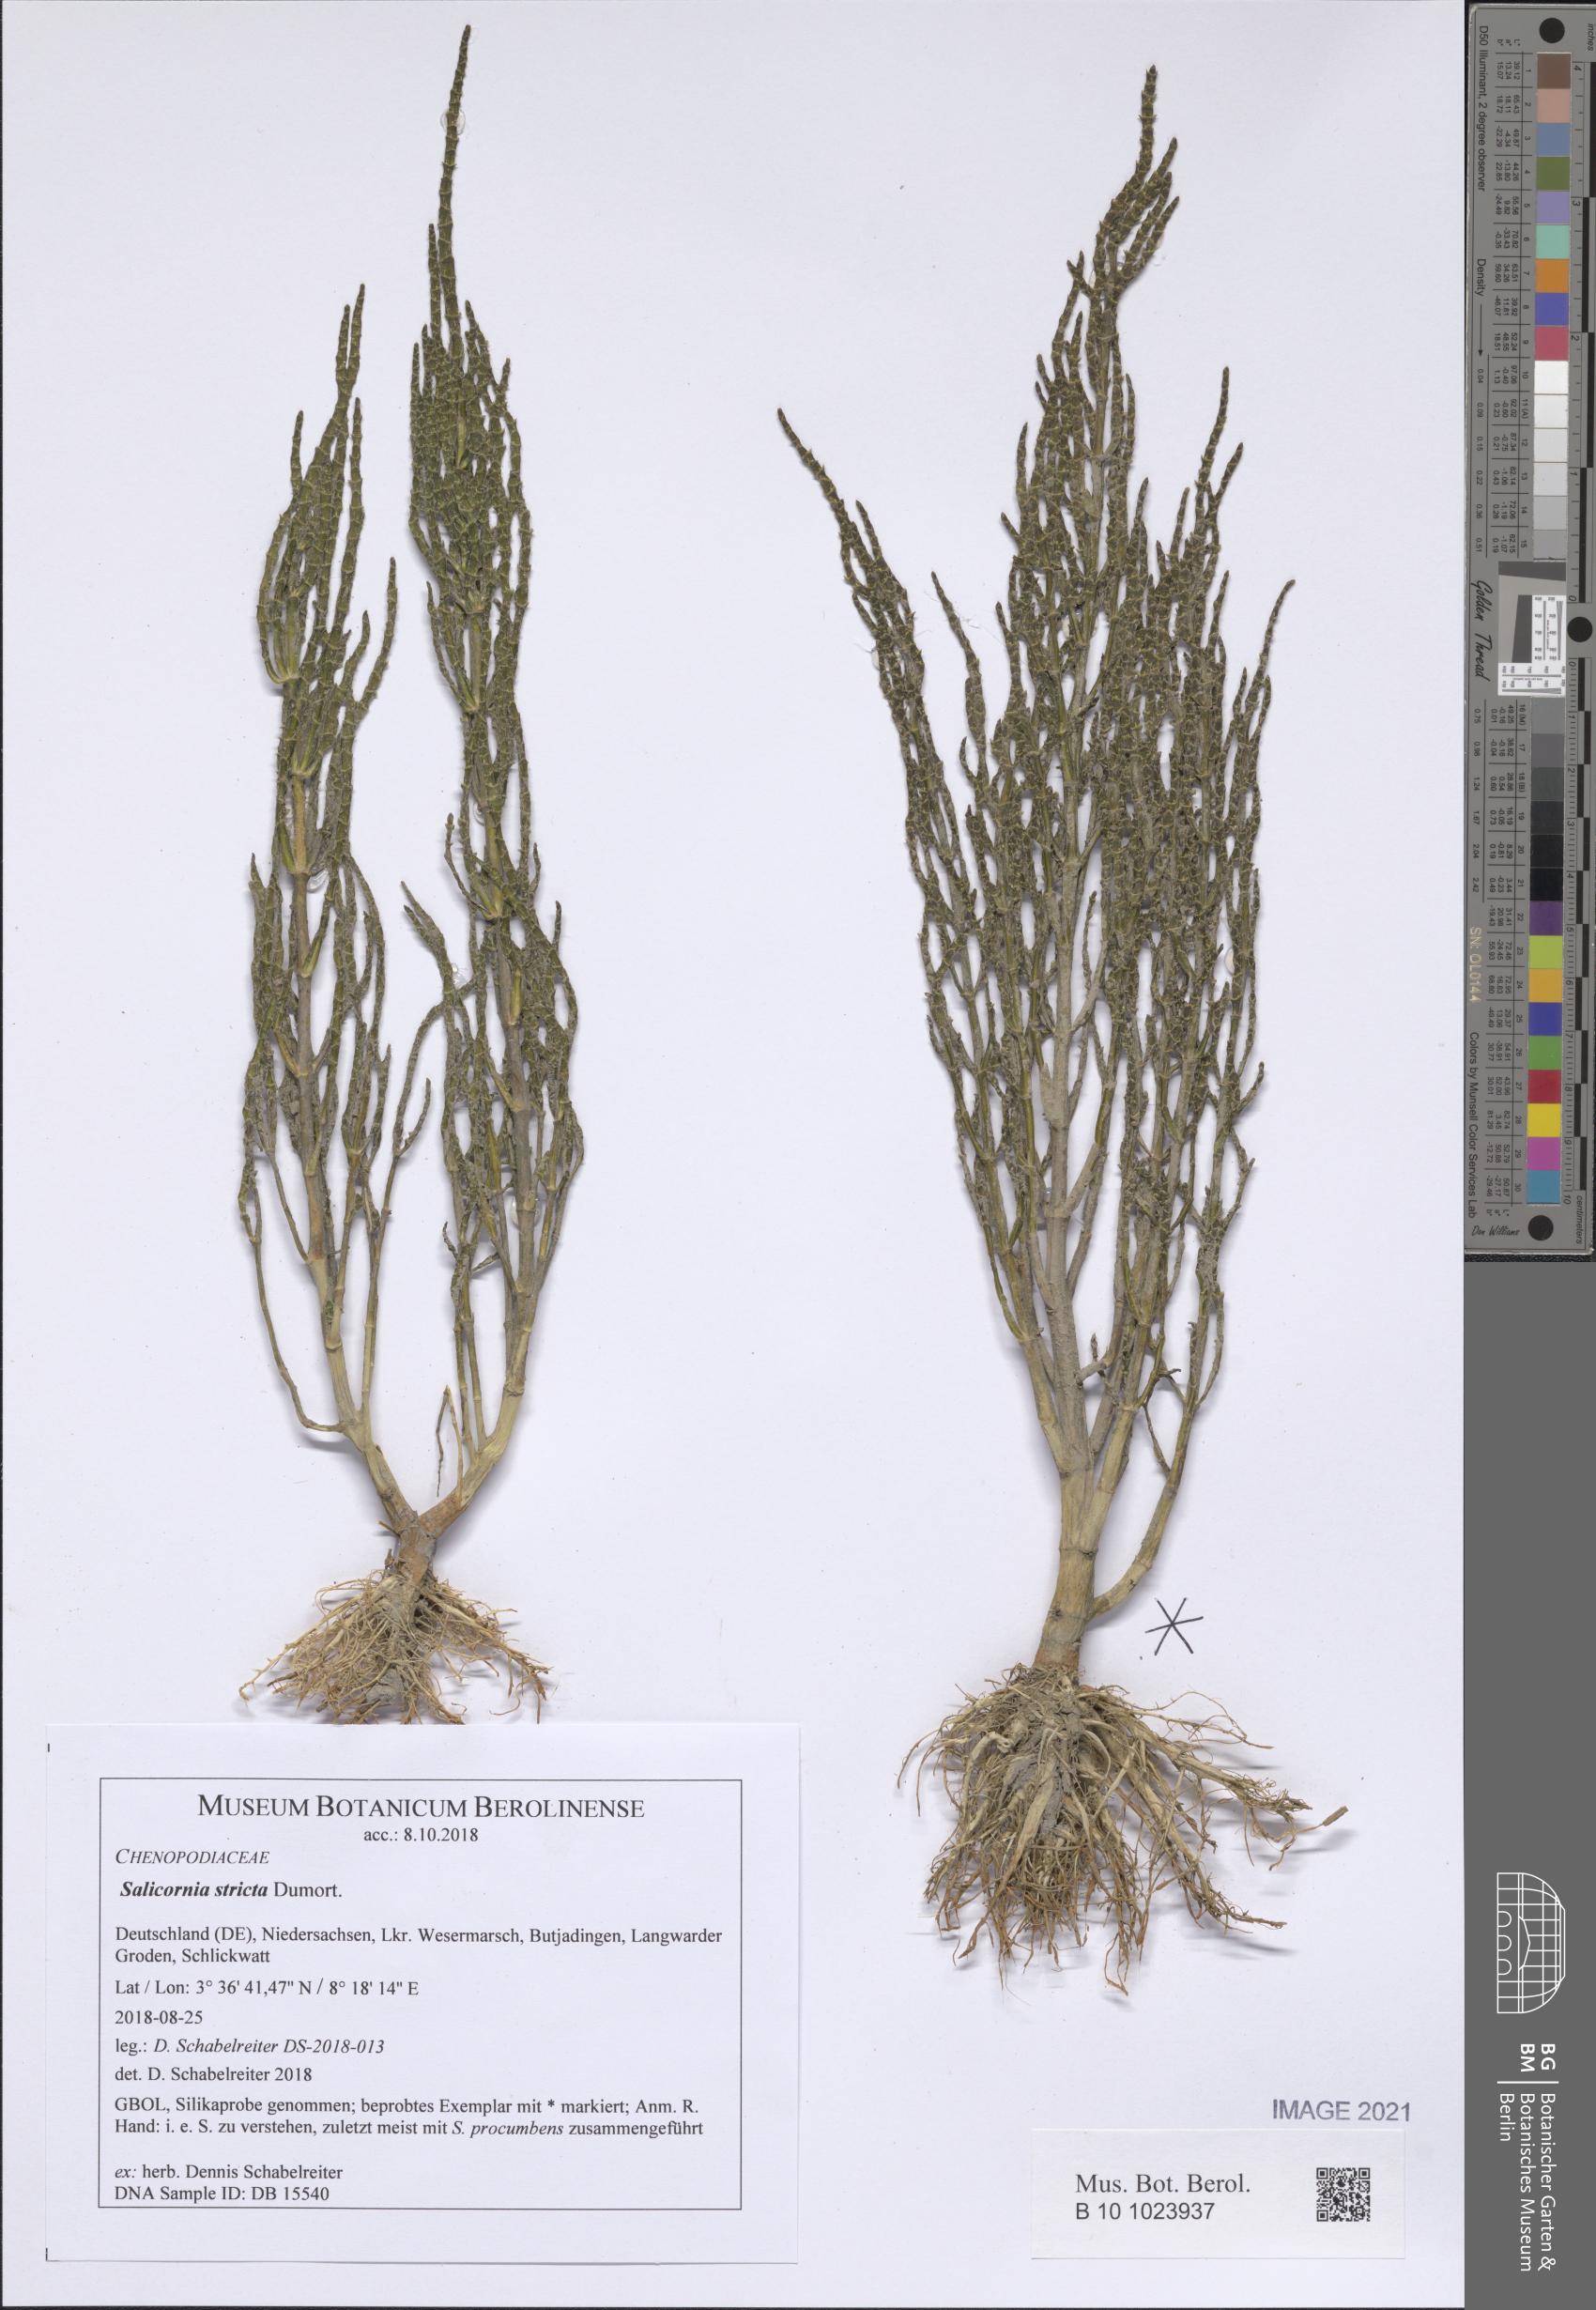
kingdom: Plantae
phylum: Tracheophyta
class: Magnoliopsida
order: Caryophyllales
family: Amaranthaceae
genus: Salicornia
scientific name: Salicornia procumbens
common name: Long-spiked glasswort
